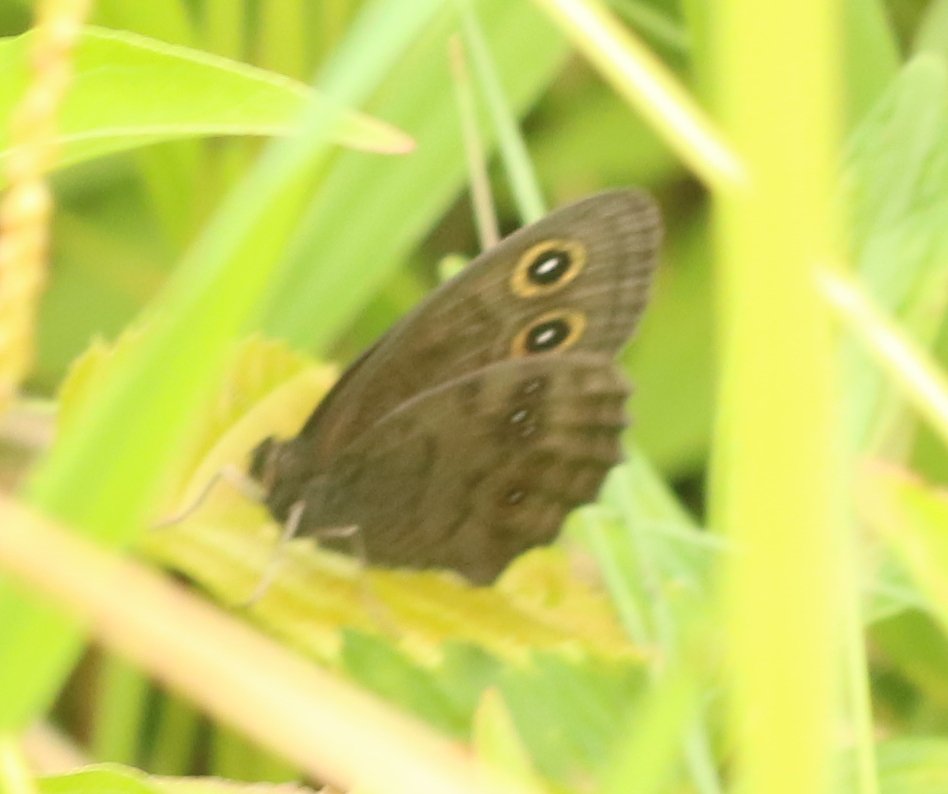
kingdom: Animalia
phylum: Arthropoda
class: Insecta
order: Lepidoptera
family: Nymphalidae
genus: Cercyonis
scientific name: Cercyonis pegala
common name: Common Wood-Nymph
